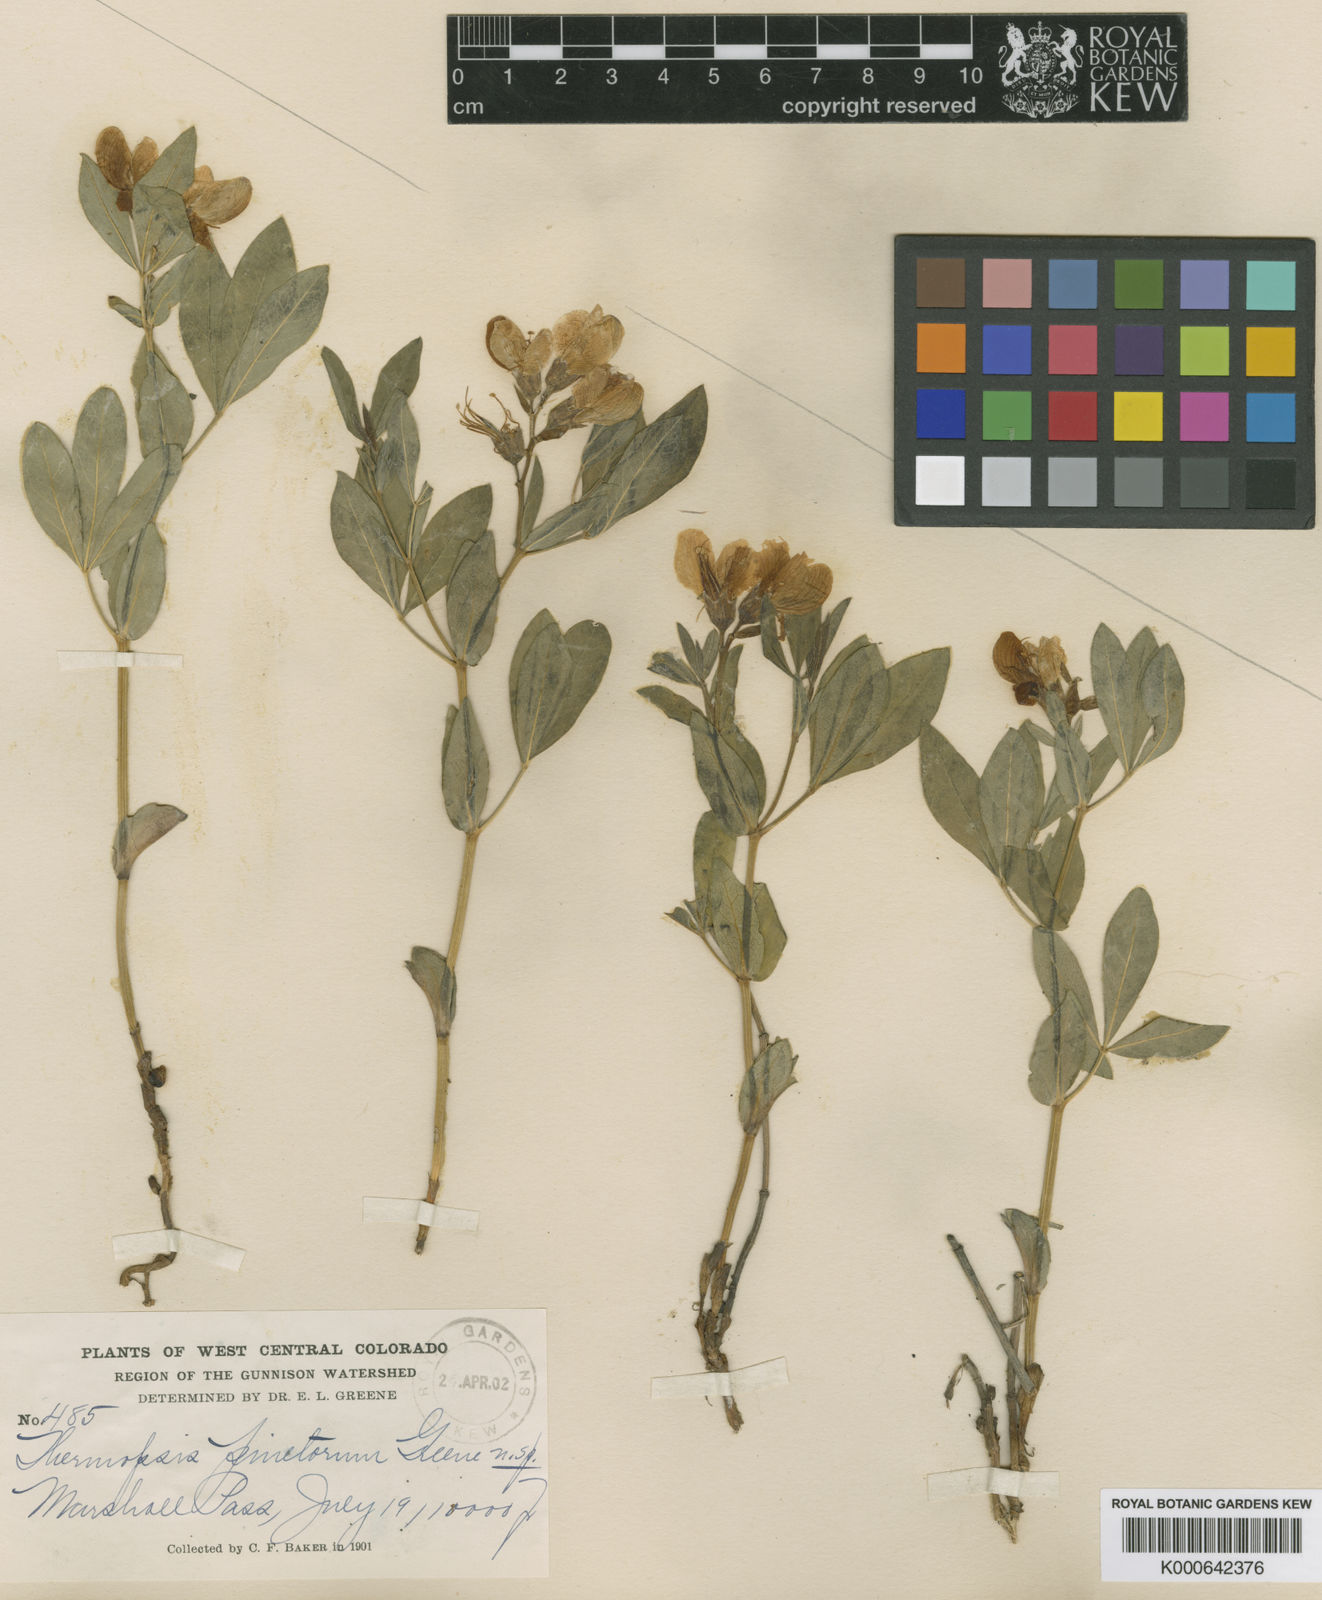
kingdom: Plantae
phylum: Tracheophyta
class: Magnoliopsida
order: Fabales
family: Fabaceae
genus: Thermopsis
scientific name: Thermopsis rhombifolia
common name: Circle-pod-pea
